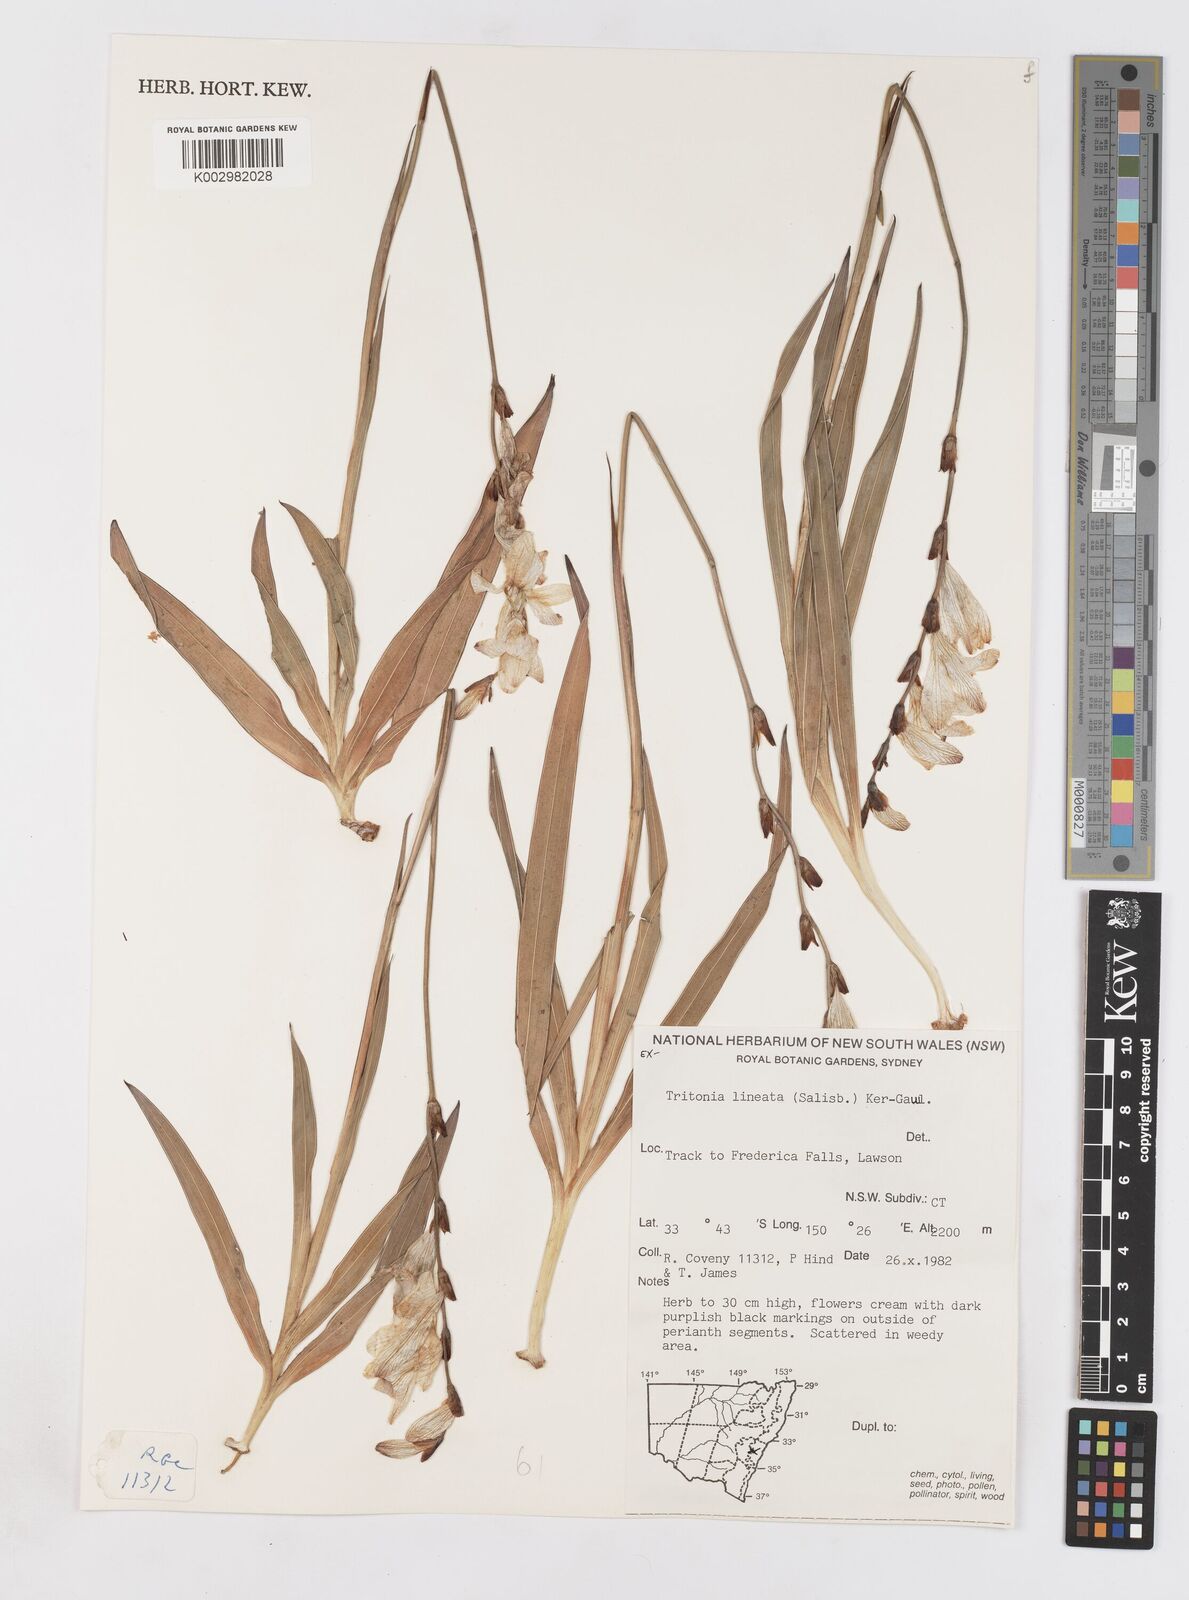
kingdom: Plantae
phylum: Tracheophyta
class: Liliopsida
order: Asparagales
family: Iridaceae
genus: Tritonia
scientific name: Tritonia gladiolaris
